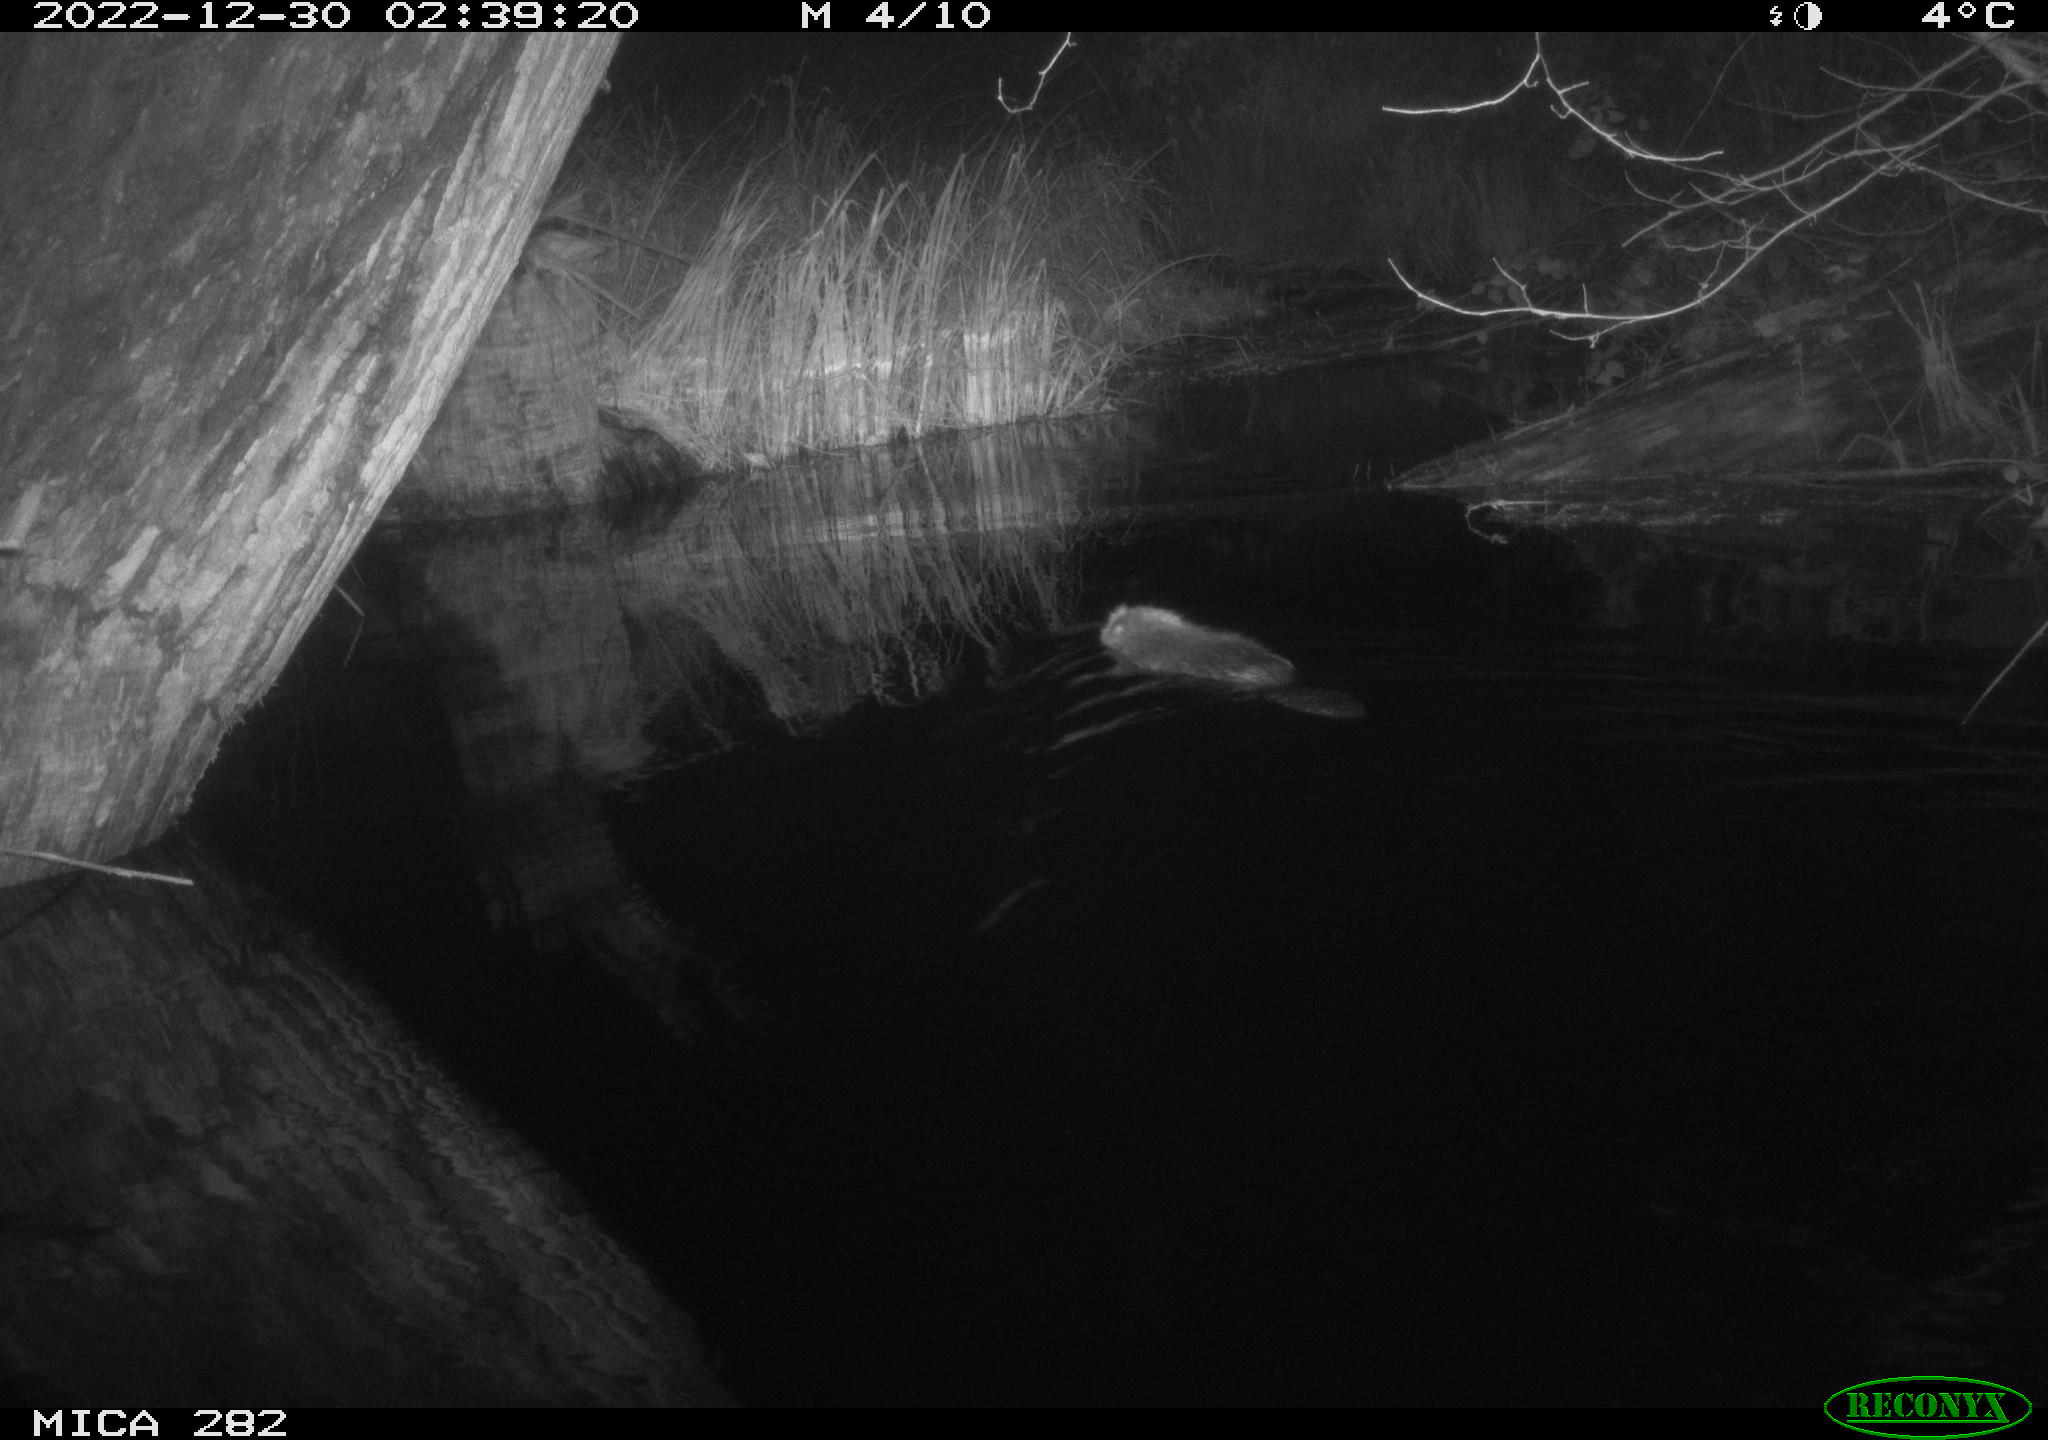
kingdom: Animalia
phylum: Chordata
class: Mammalia
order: Rodentia
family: Castoridae
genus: Castor
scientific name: Castor fiber
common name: Eurasian beaver
